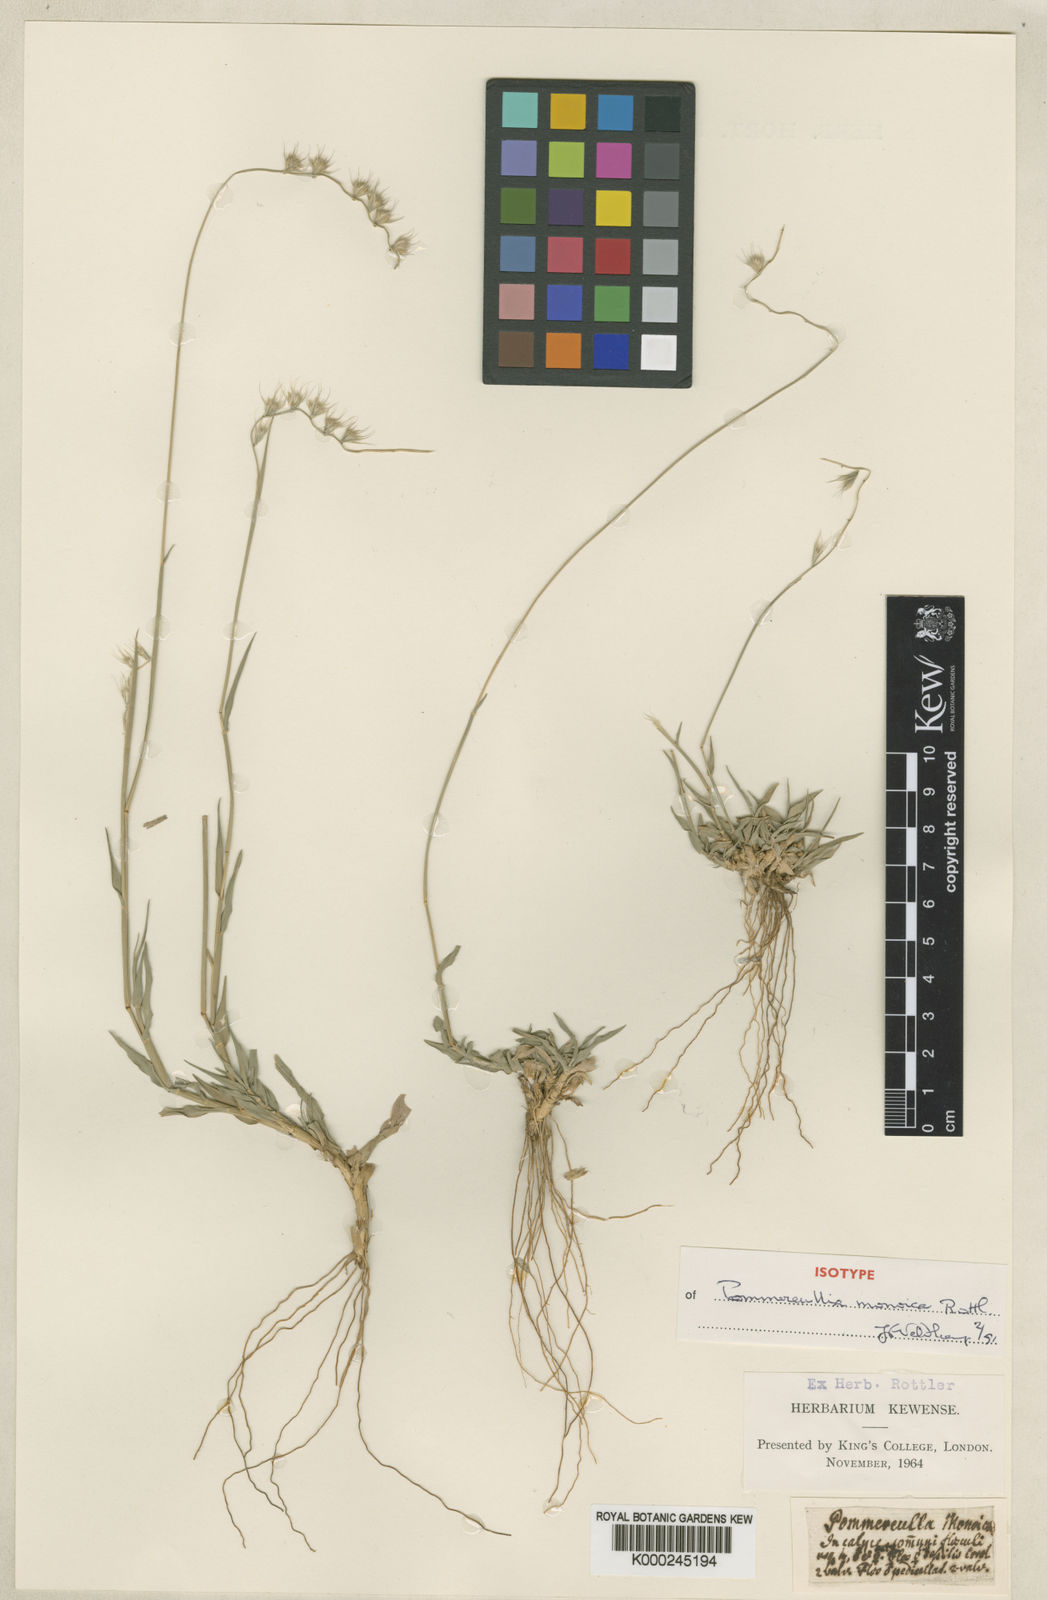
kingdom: Plantae
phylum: Tracheophyta
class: Liliopsida
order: Poales
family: Poaceae
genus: Melanocenchris
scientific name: Melanocenchris rothiana
